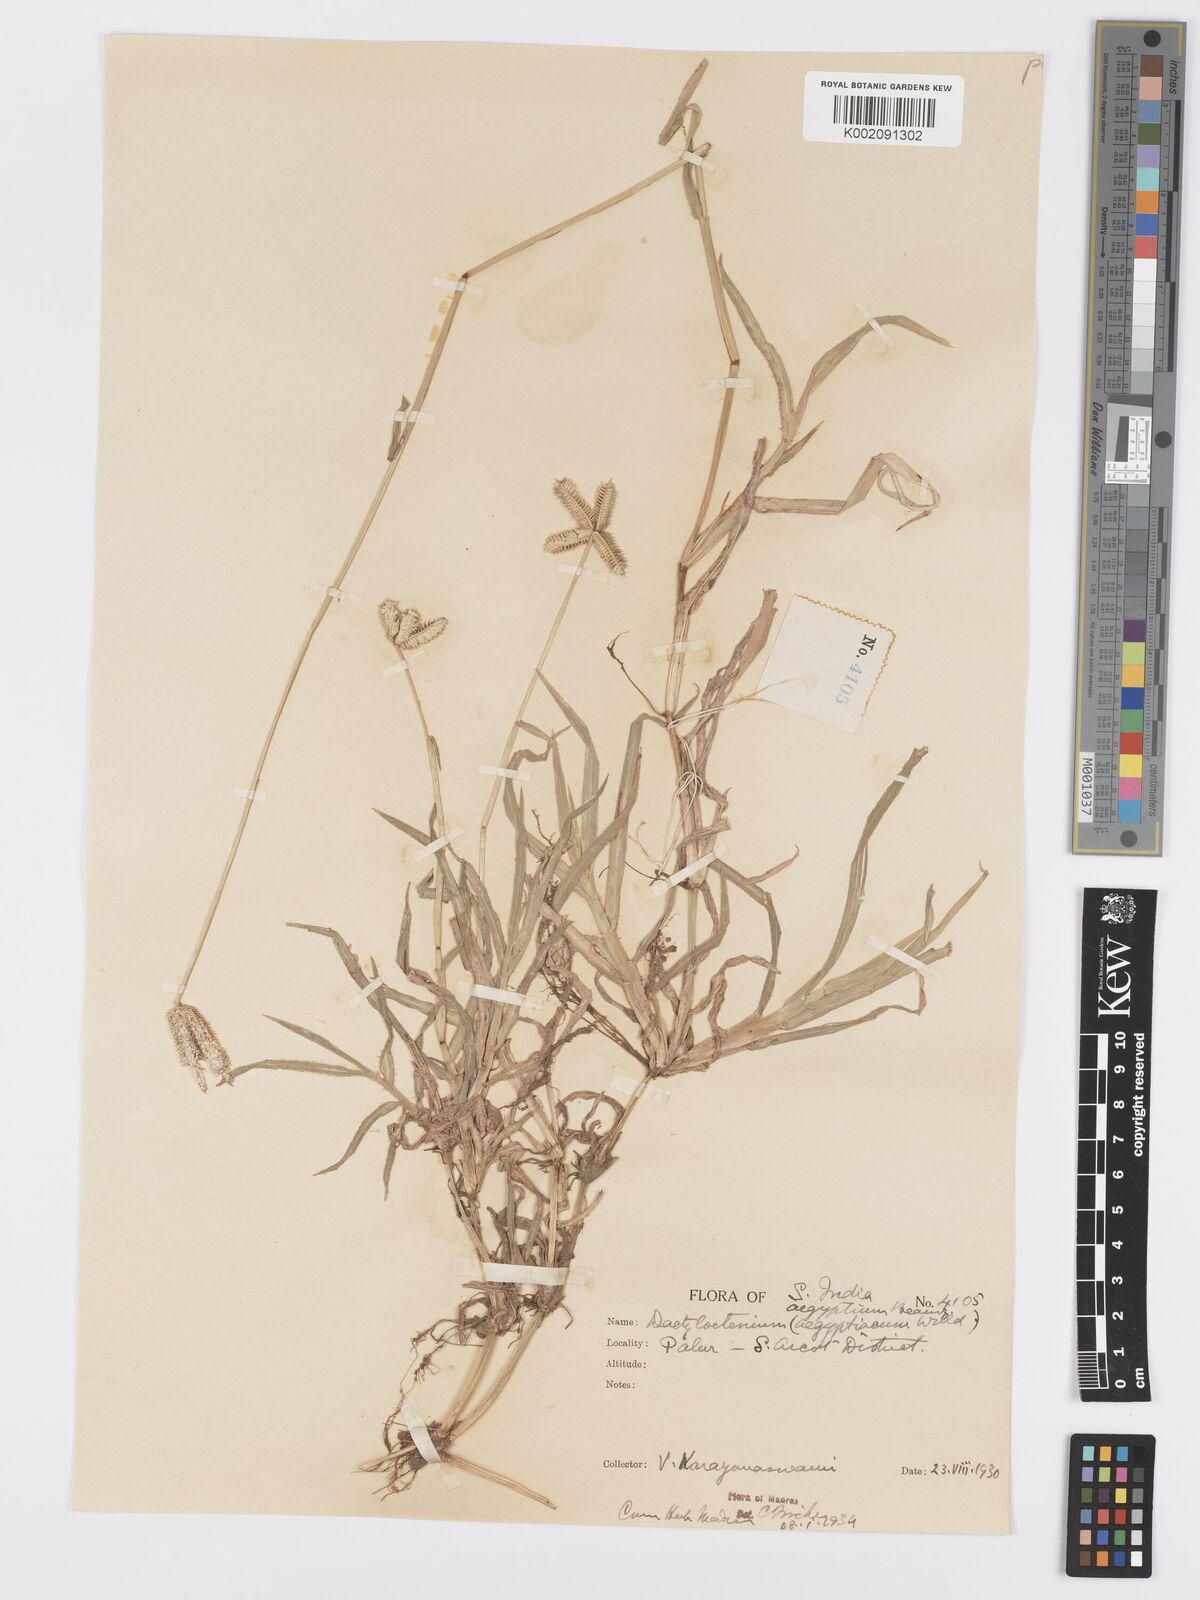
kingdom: Plantae
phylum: Tracheophyta
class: Liliopsida
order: Poales
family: Poaceae
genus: Dactyloctenium
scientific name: Dactyloctenium aegyptium
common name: Egyptian grass
